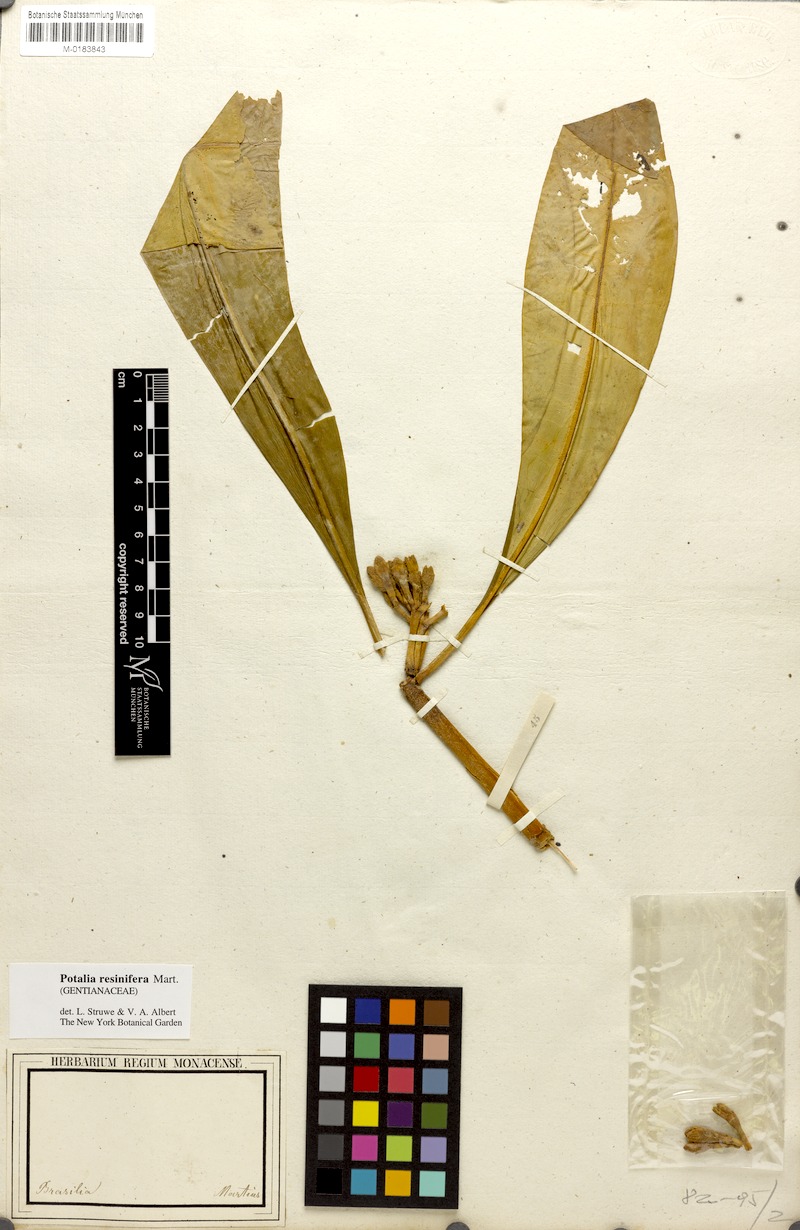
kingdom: Plantae
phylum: Tracheophyta
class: Magnoliopsida
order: Gentianales
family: Gentianaceae
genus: Potalia
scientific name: Potalia resinifera
